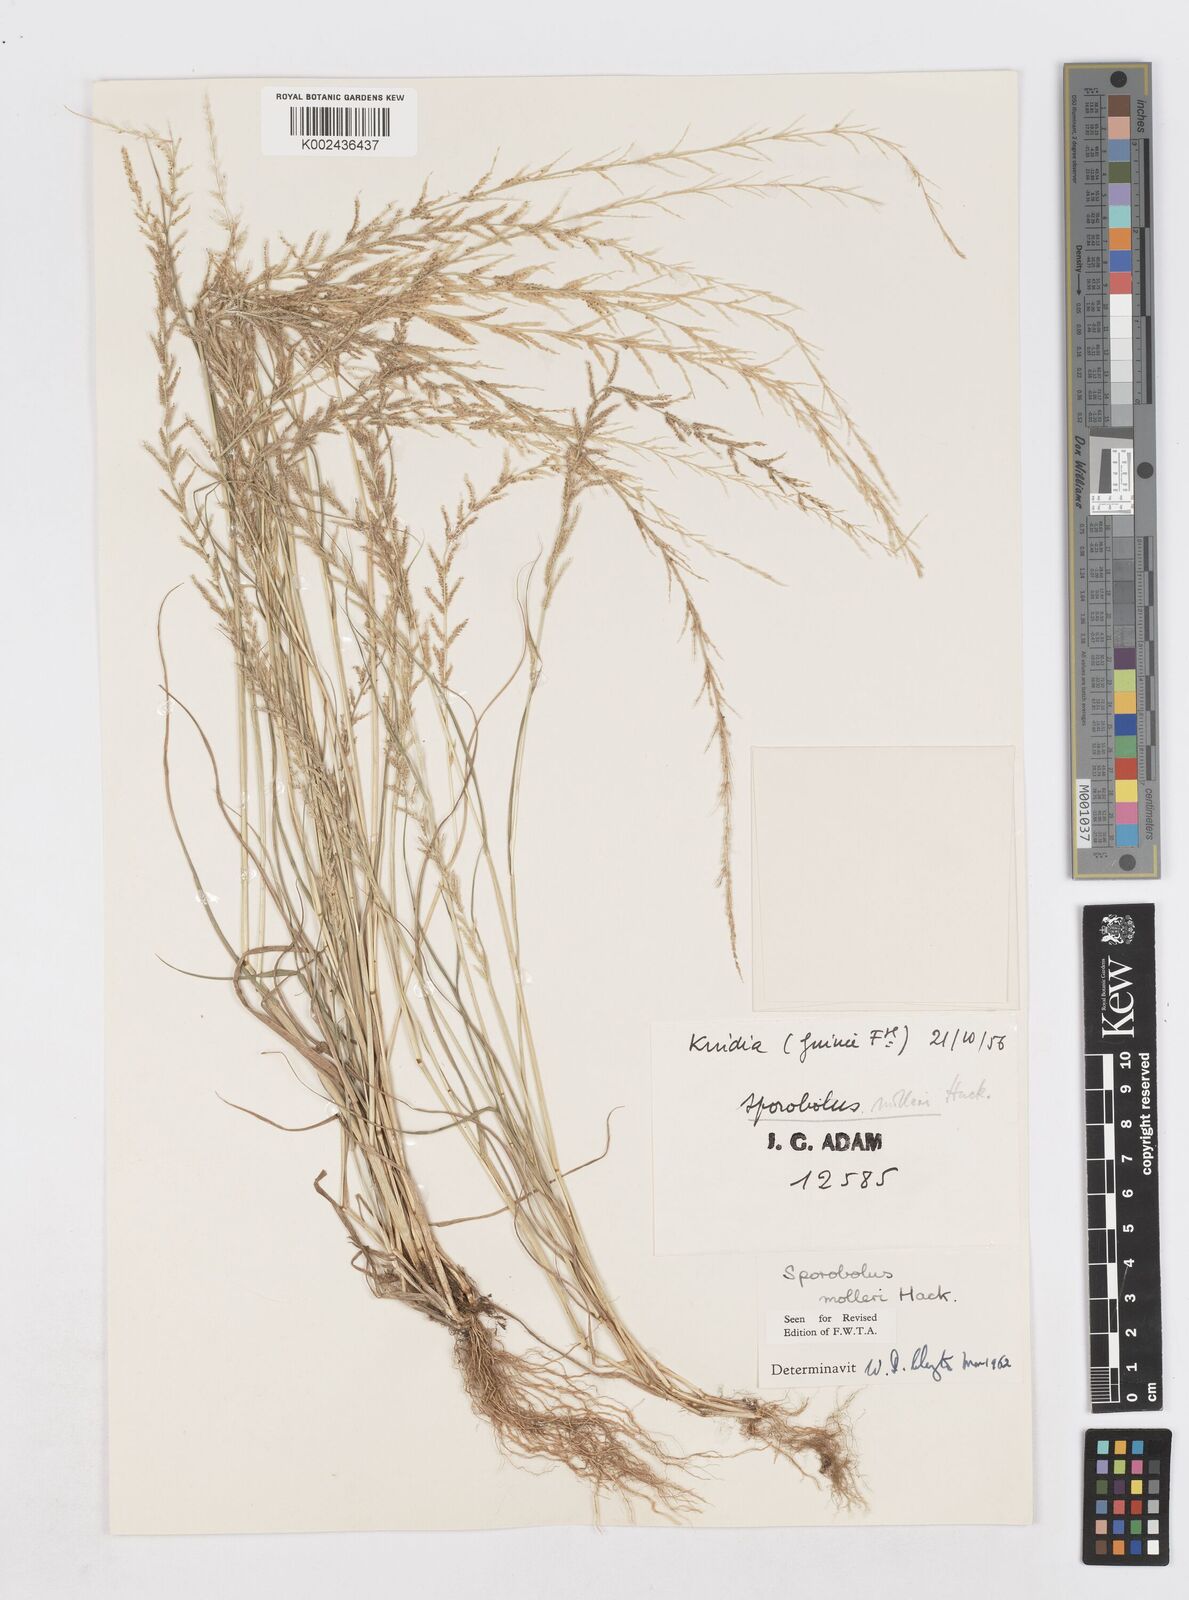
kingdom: Plantae
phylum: Tracheophyta
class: Liliopsida
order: Poales
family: Poaceae
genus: Sporobolus
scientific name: Sporobolus molleri
